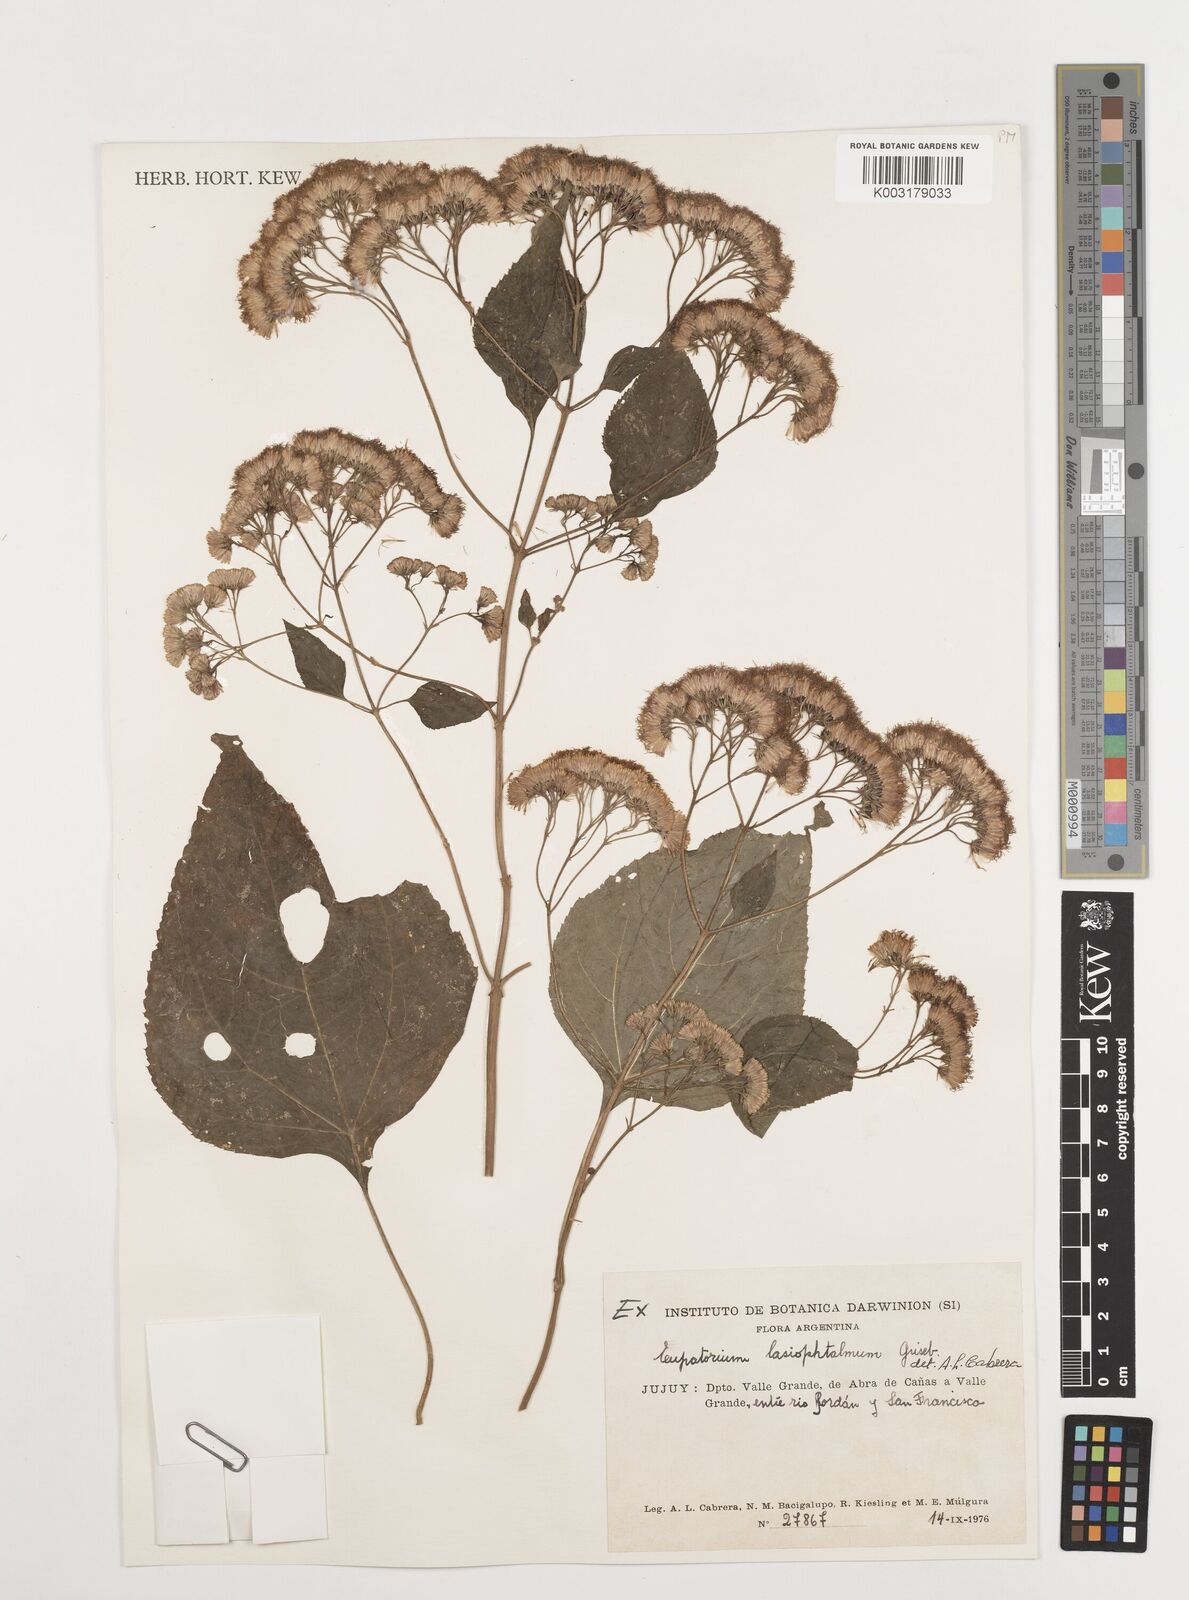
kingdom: Plantae
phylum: Tracheophyta
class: Magnoliopsida
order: Asterales
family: Asteraceae
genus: Kaunia
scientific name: Kaunia lasiophthalma
